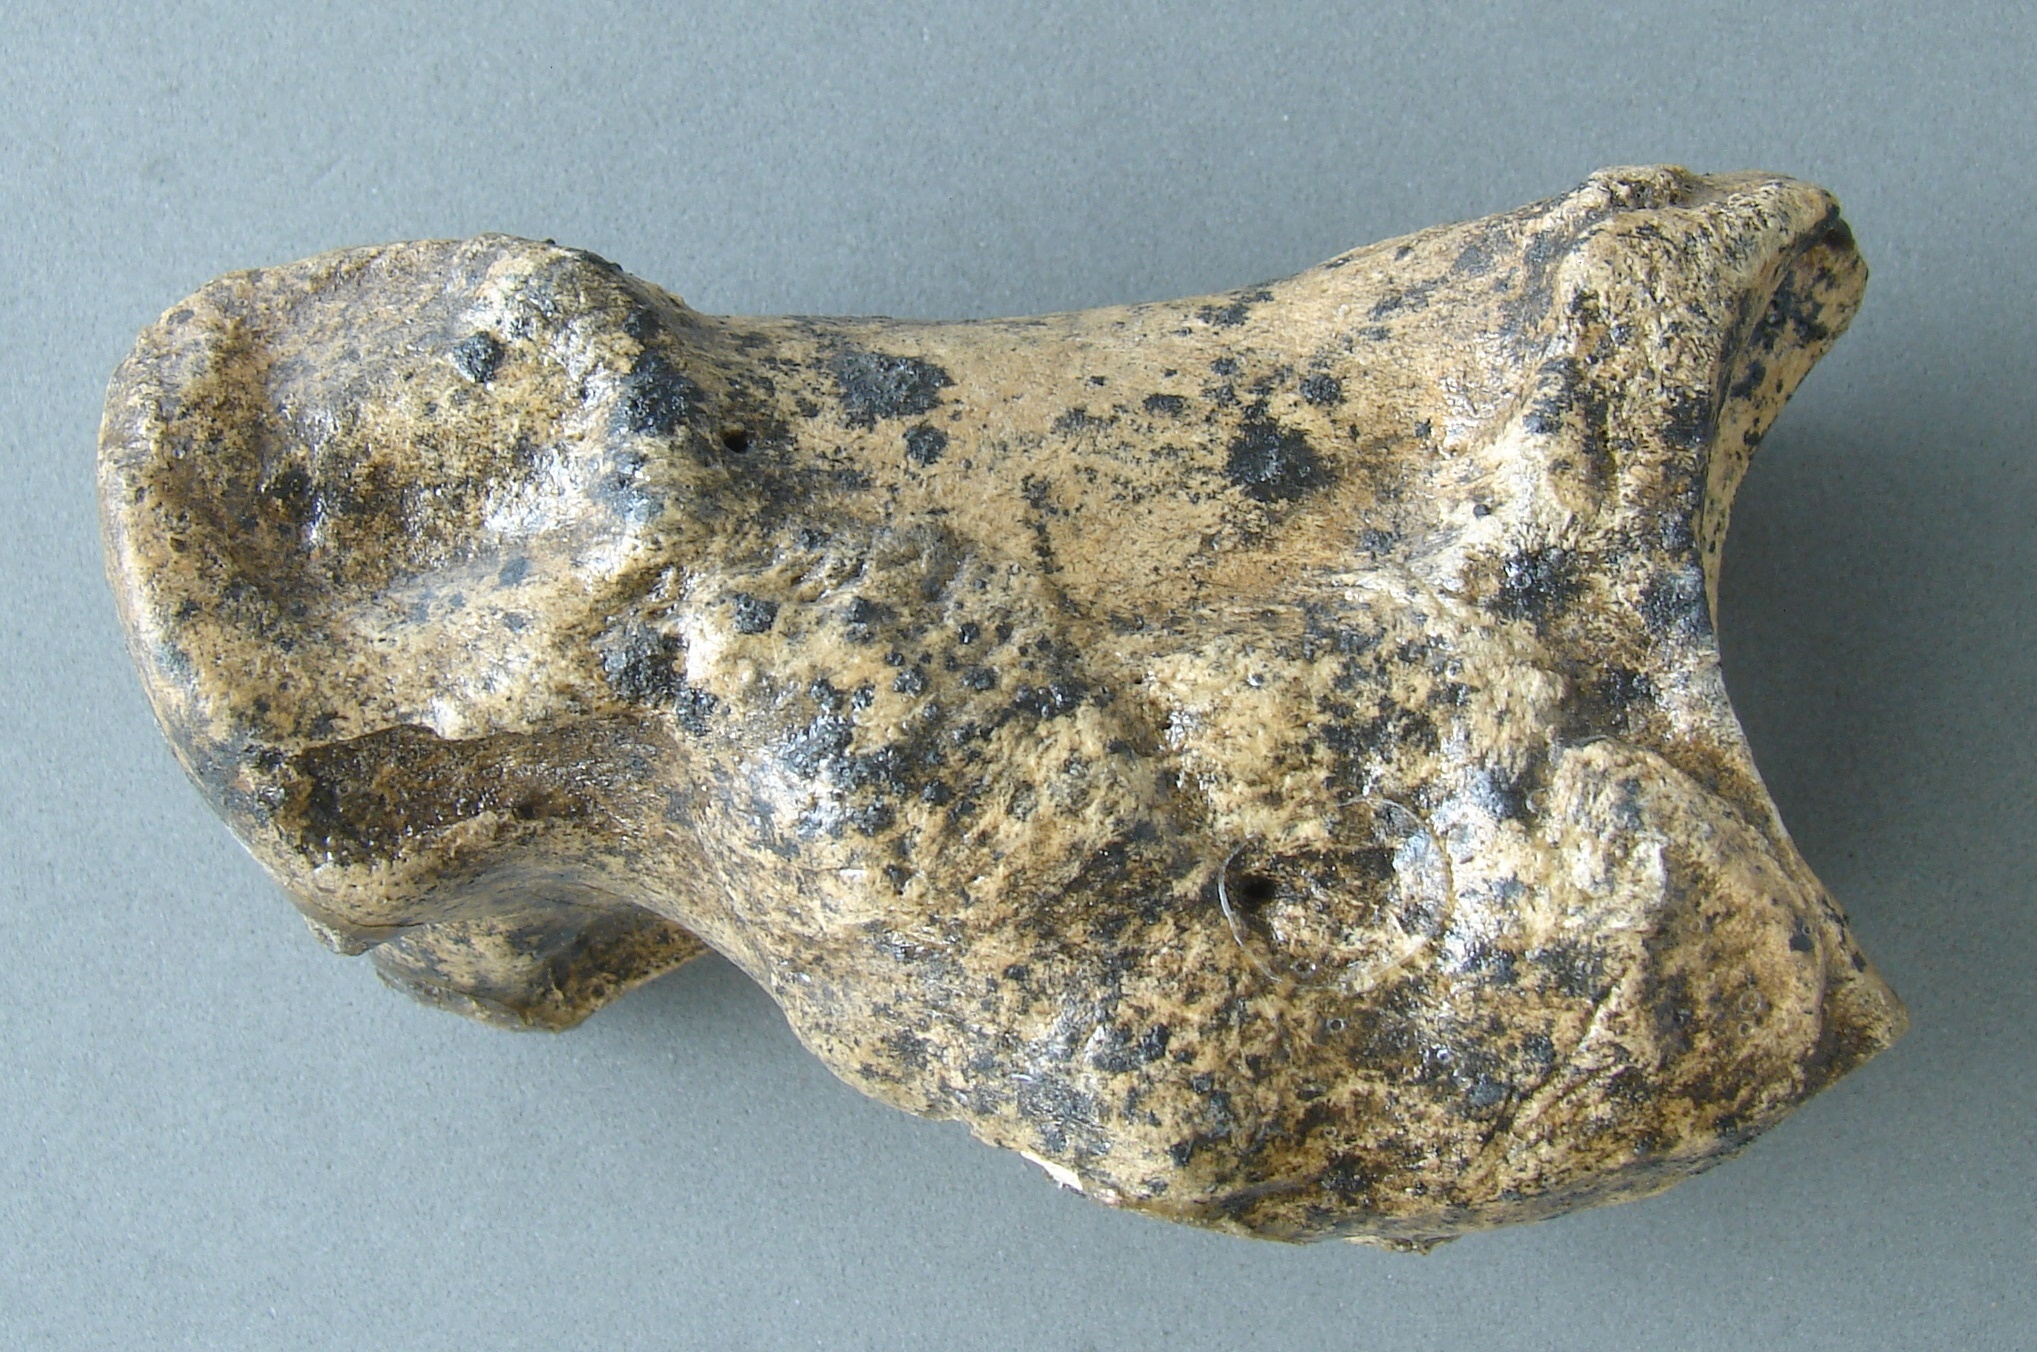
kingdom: Animalia
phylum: Chordata
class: Mammalia
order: Artiodactyla
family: Bovidae
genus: Bos
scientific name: Bos taurus
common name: Domesticated cattle
